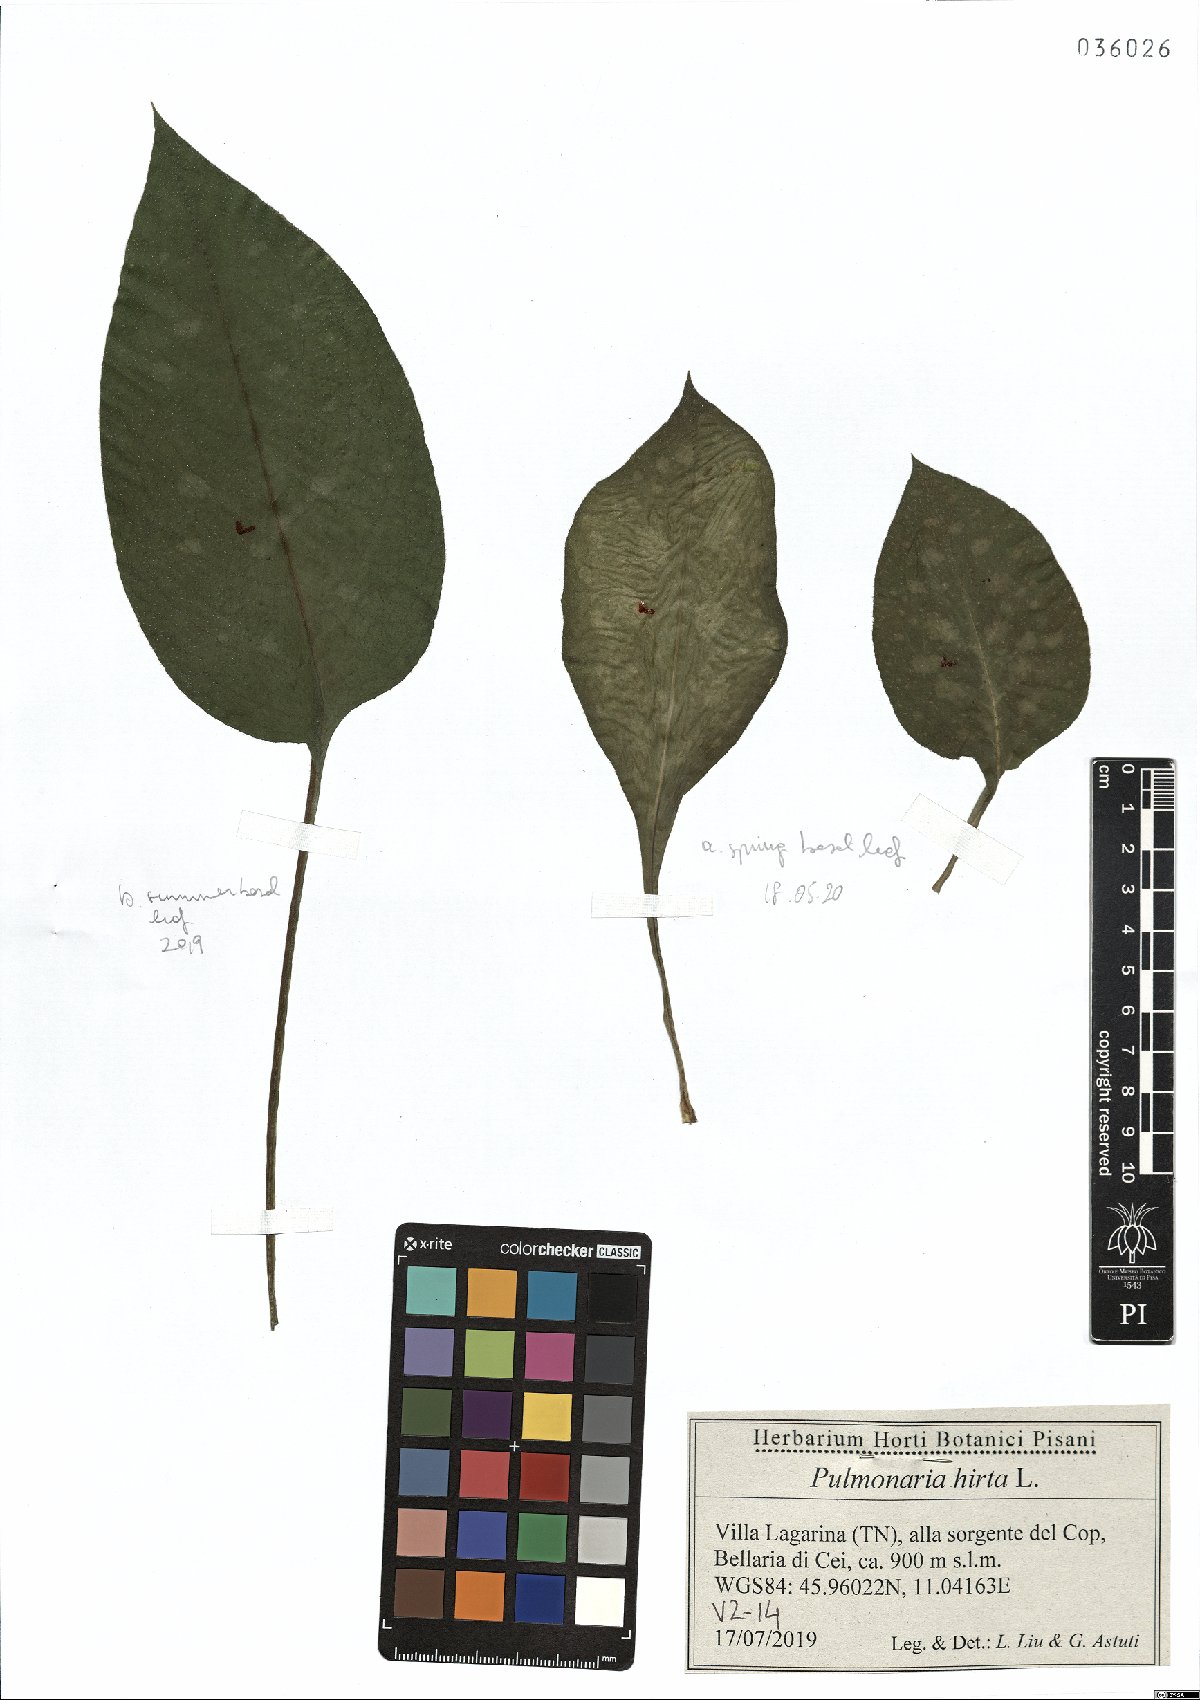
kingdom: Plantae
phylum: Tracheophyta
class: Magnoliopsida
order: Boraginales
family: Boraginaceae
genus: Pulmonaria
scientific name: Pulmonaria hirta
